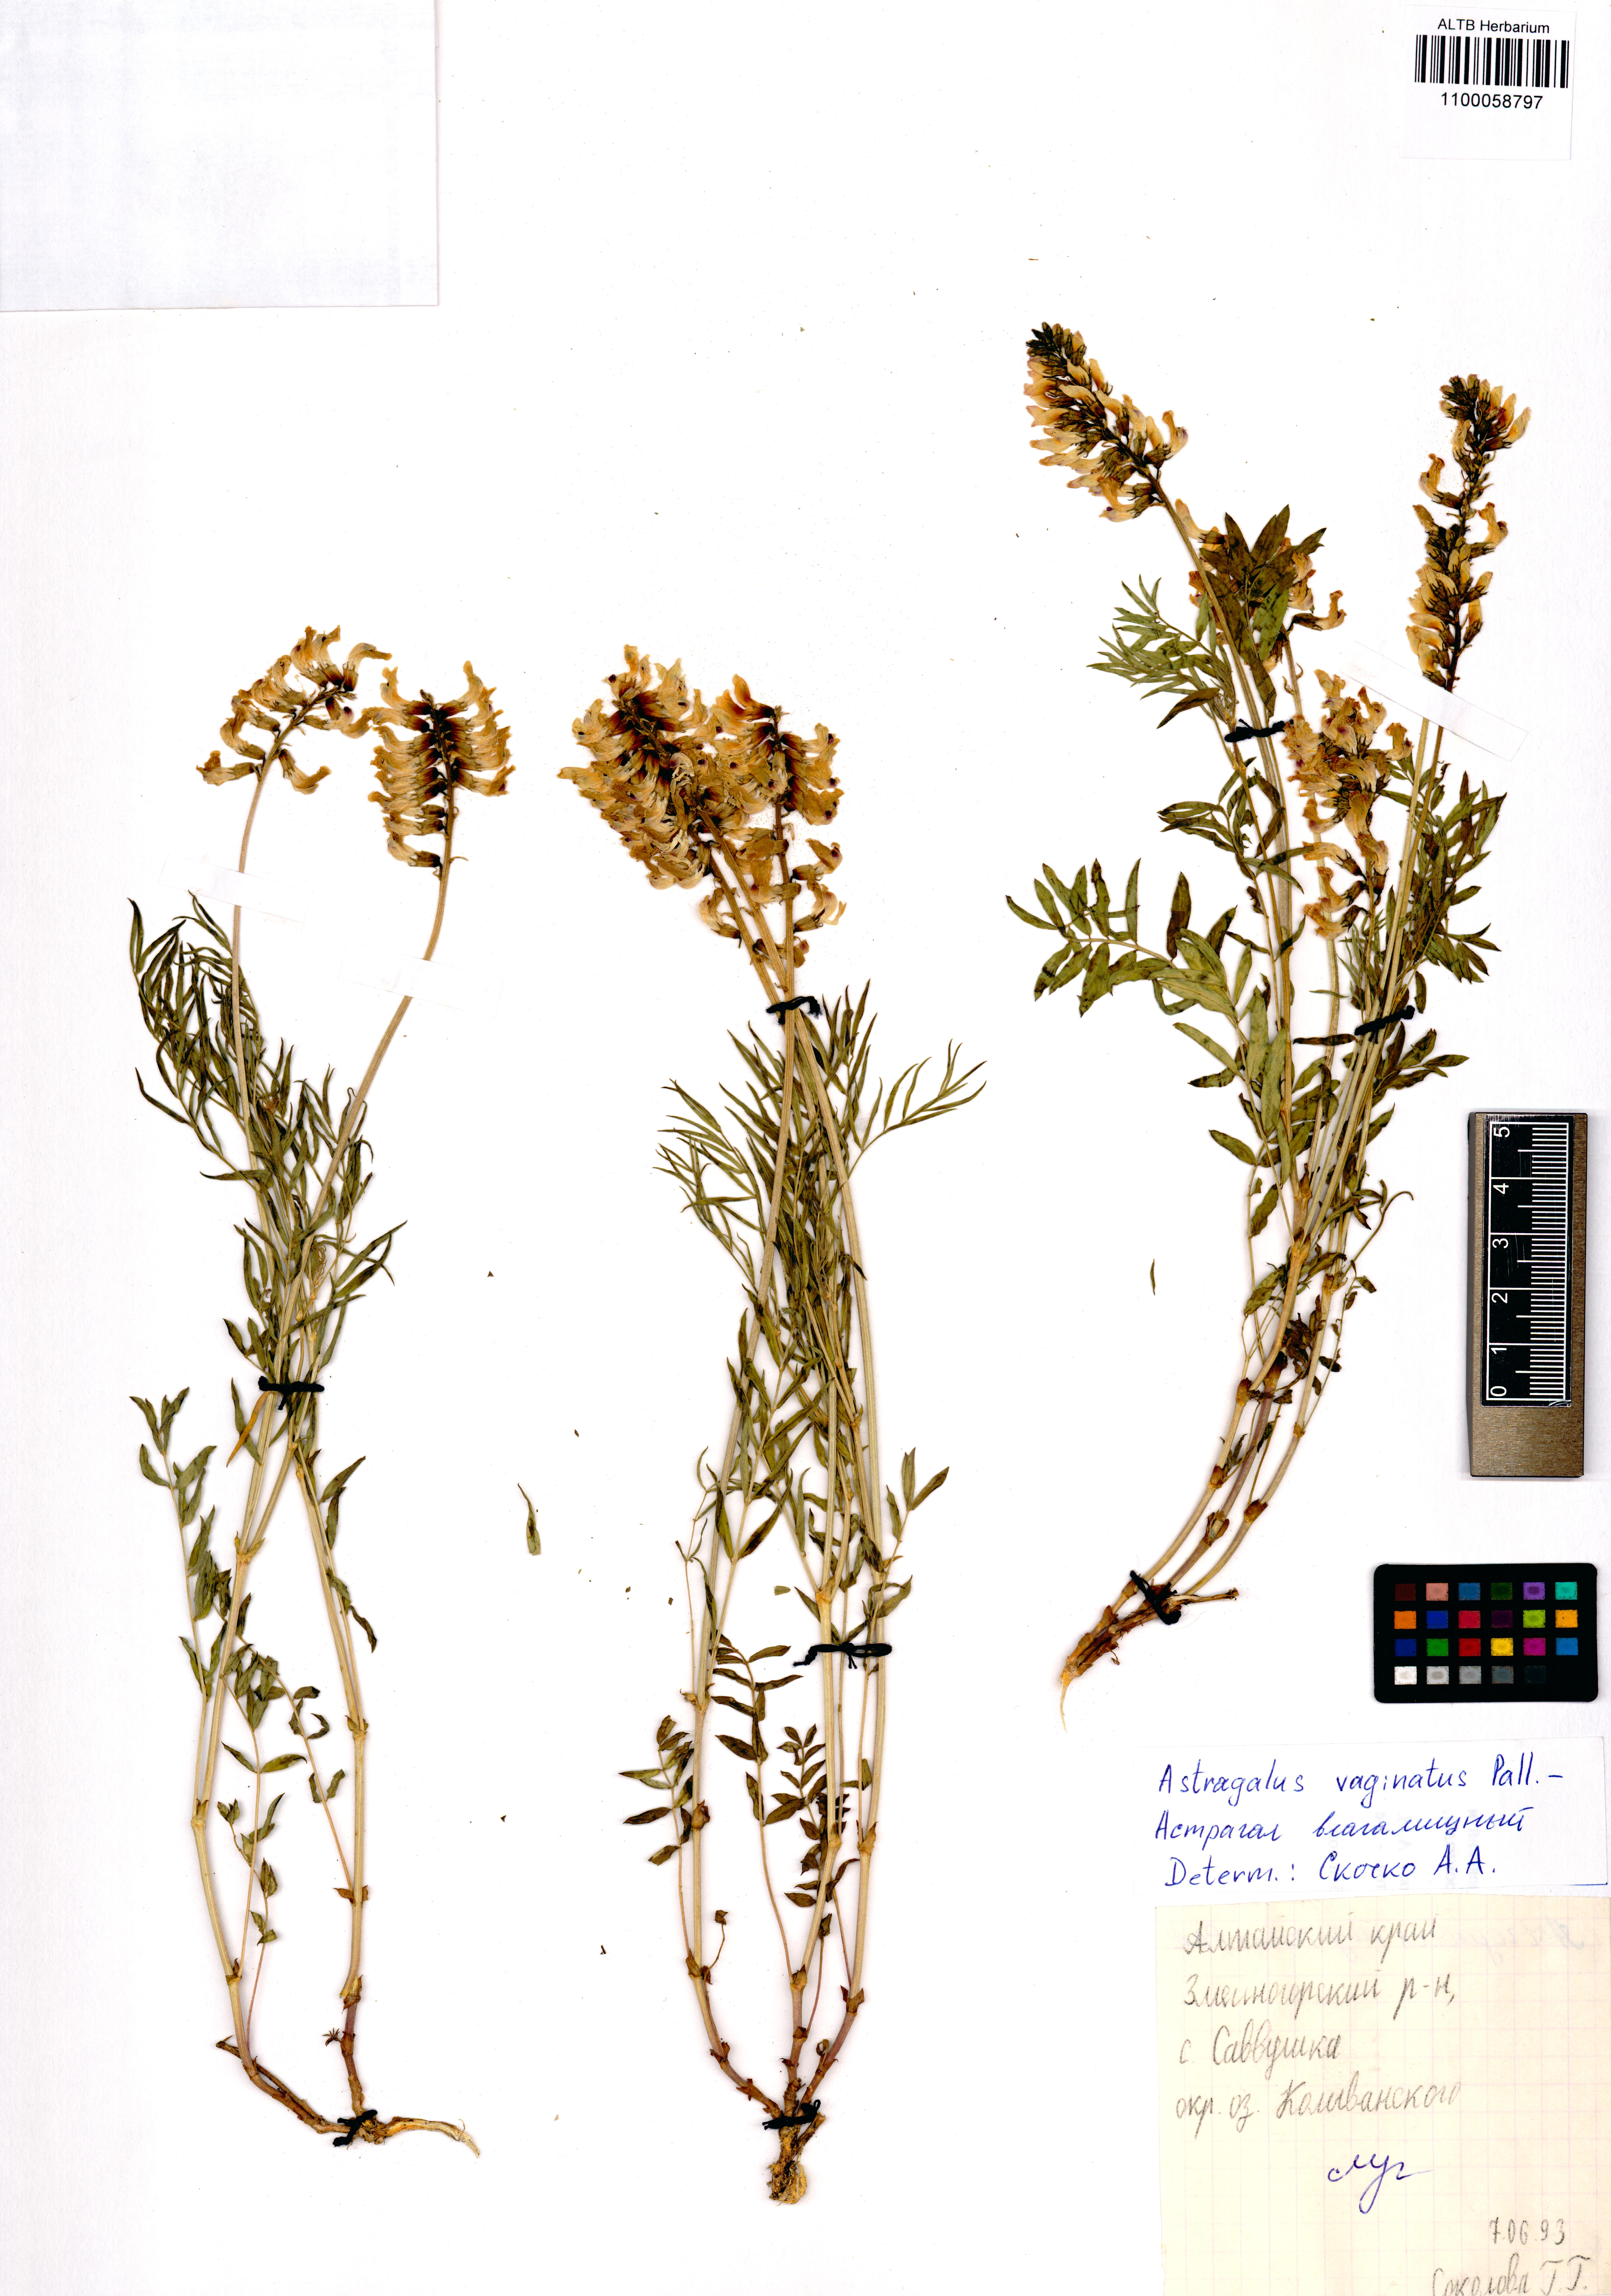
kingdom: Plantae
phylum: Tracheophyta
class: Magnoliopsida
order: Fabales
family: Fabaceae
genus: Astragalus
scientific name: Astragalus vaginatus
